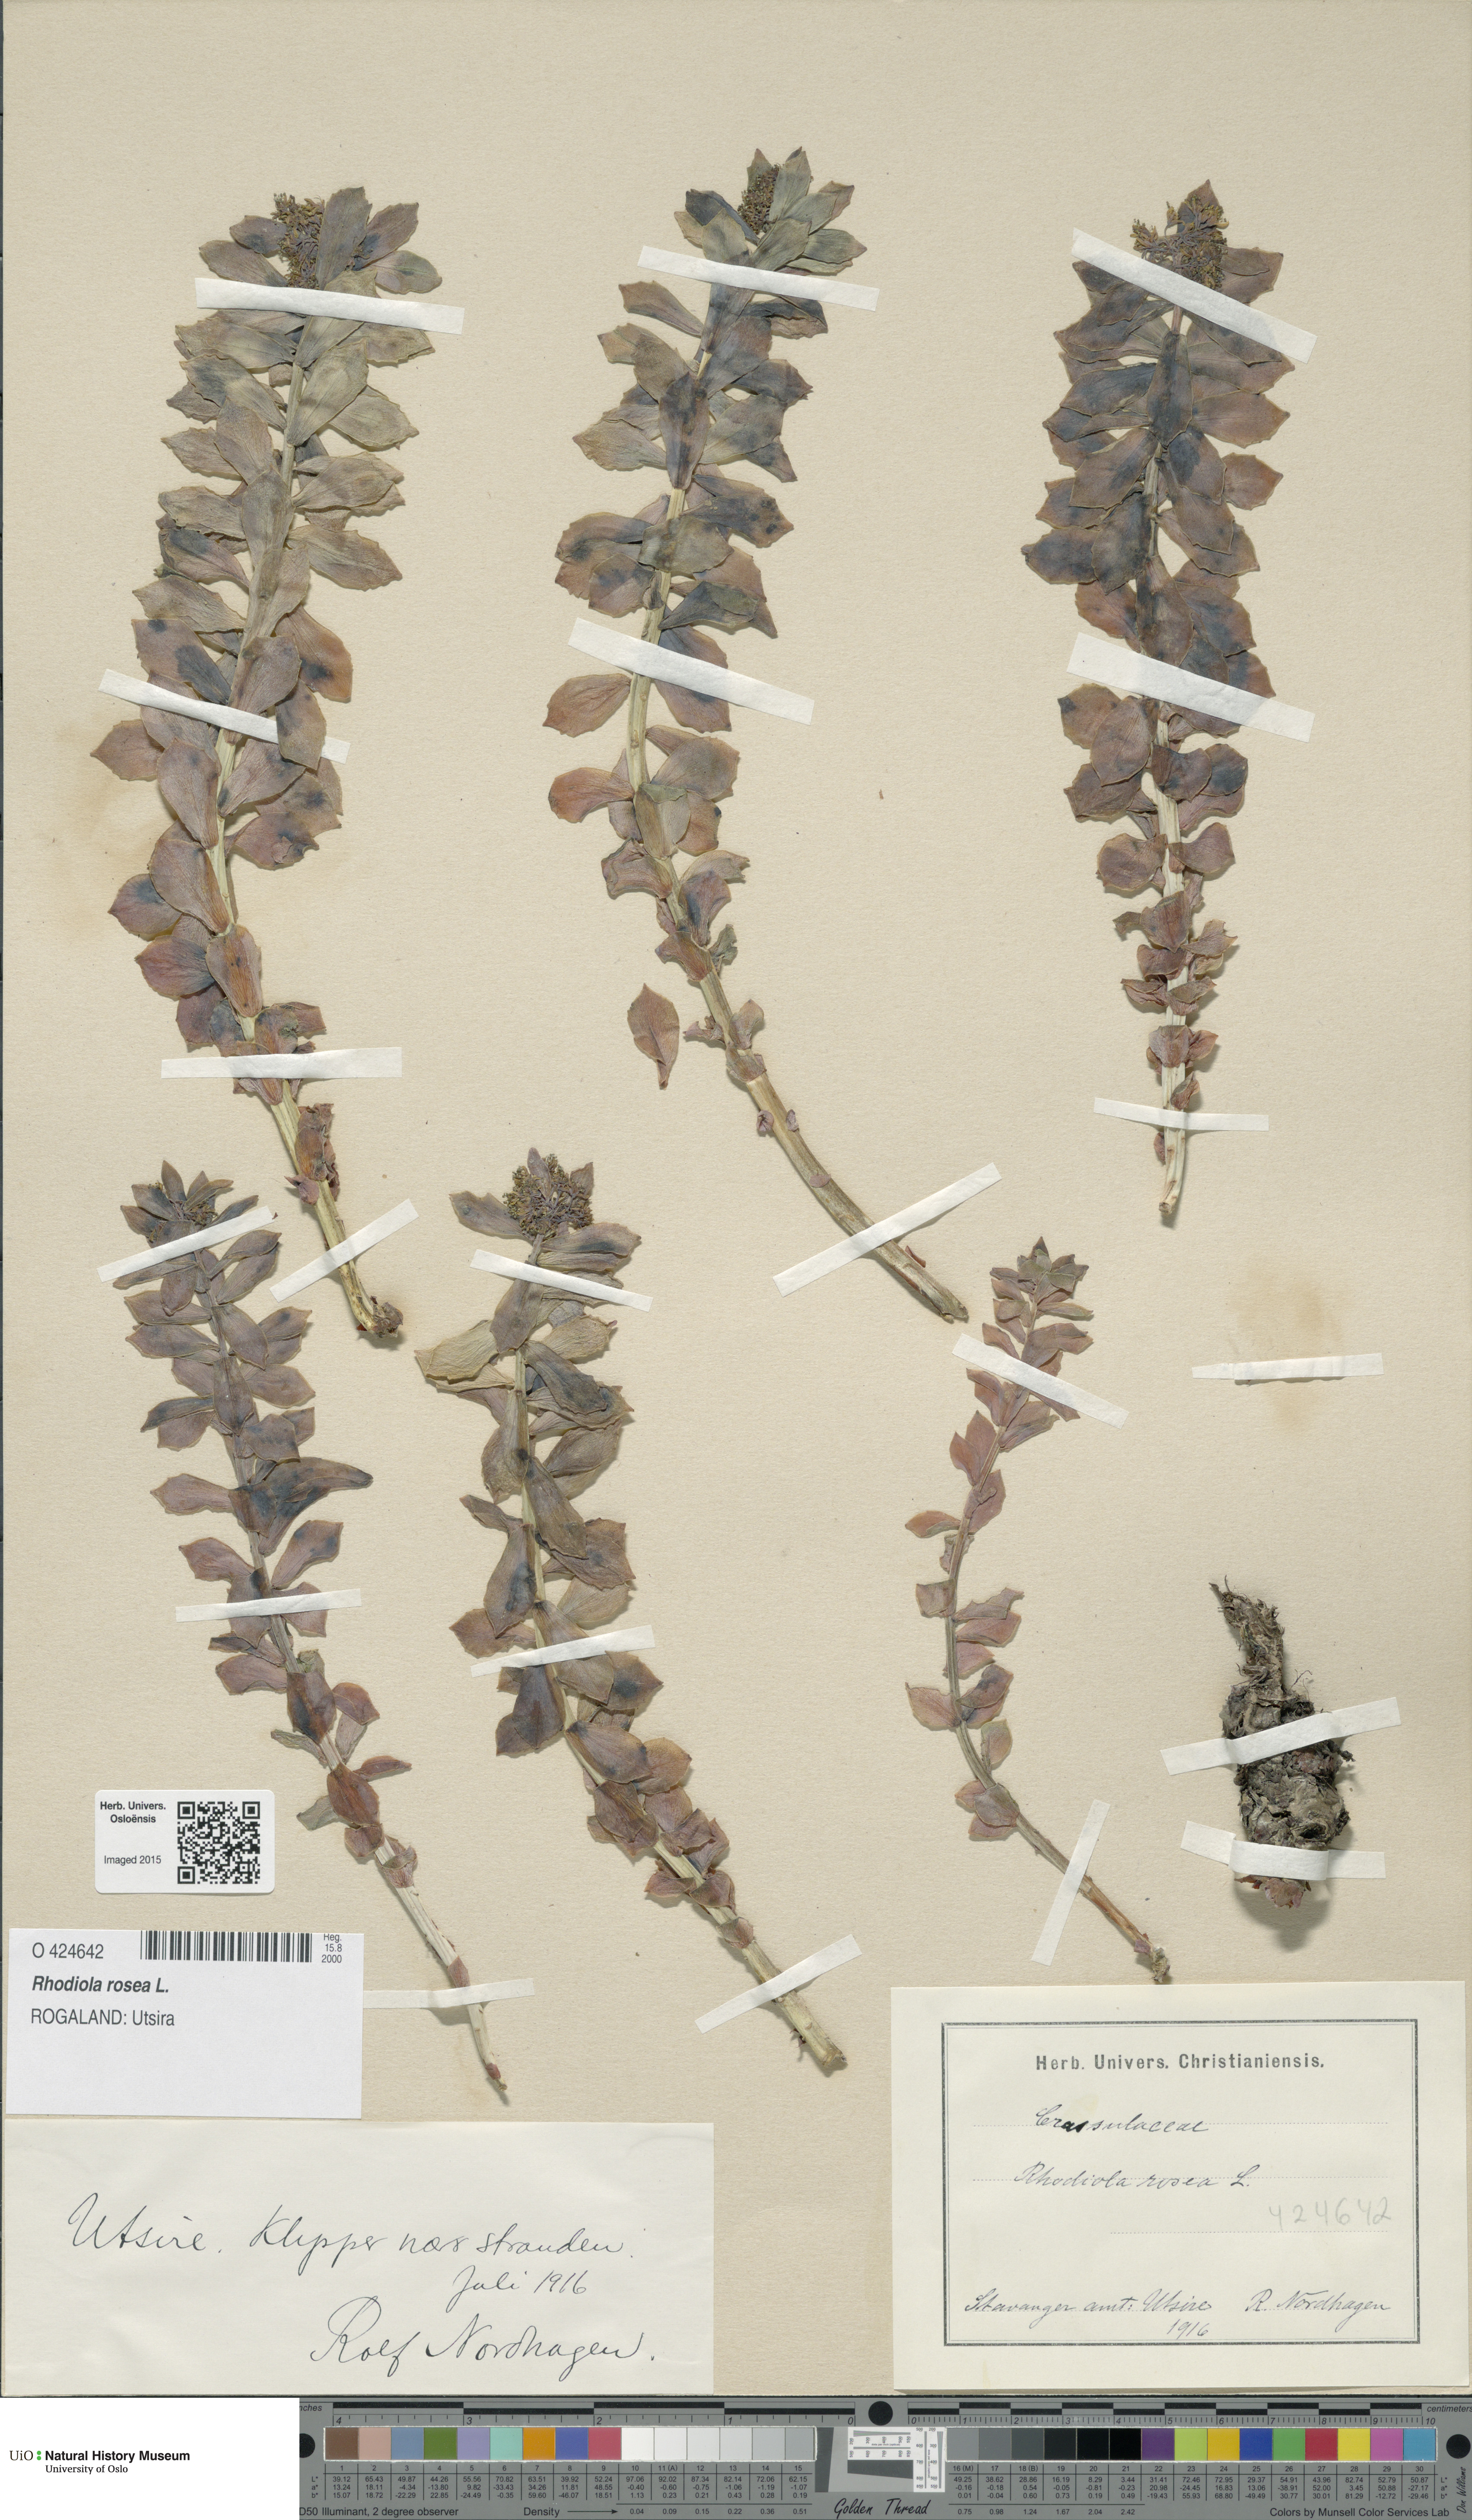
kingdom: Plantae
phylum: Tracheophyta
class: Magnoliopsida
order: Saxifragales
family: Crassulaceae
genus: Rhodiola
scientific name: Rhodiola rosea
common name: Roseroot
